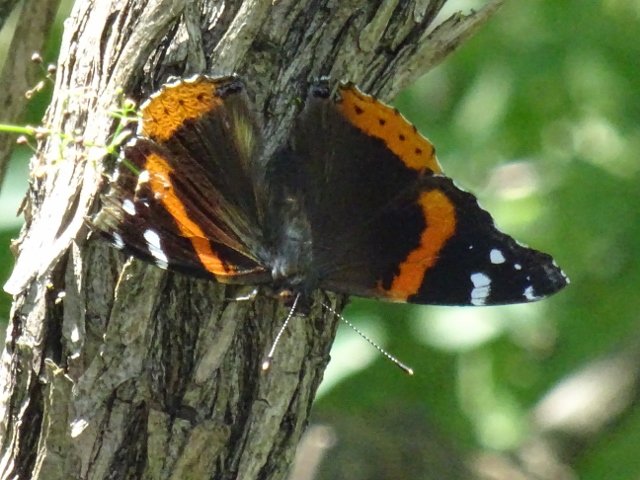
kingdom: Animalia
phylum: Arthropoda
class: Insecta
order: Lepidoptera
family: Nymphalidae
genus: Vanessa
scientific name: Vanessa atalanta
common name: Red Admiral
